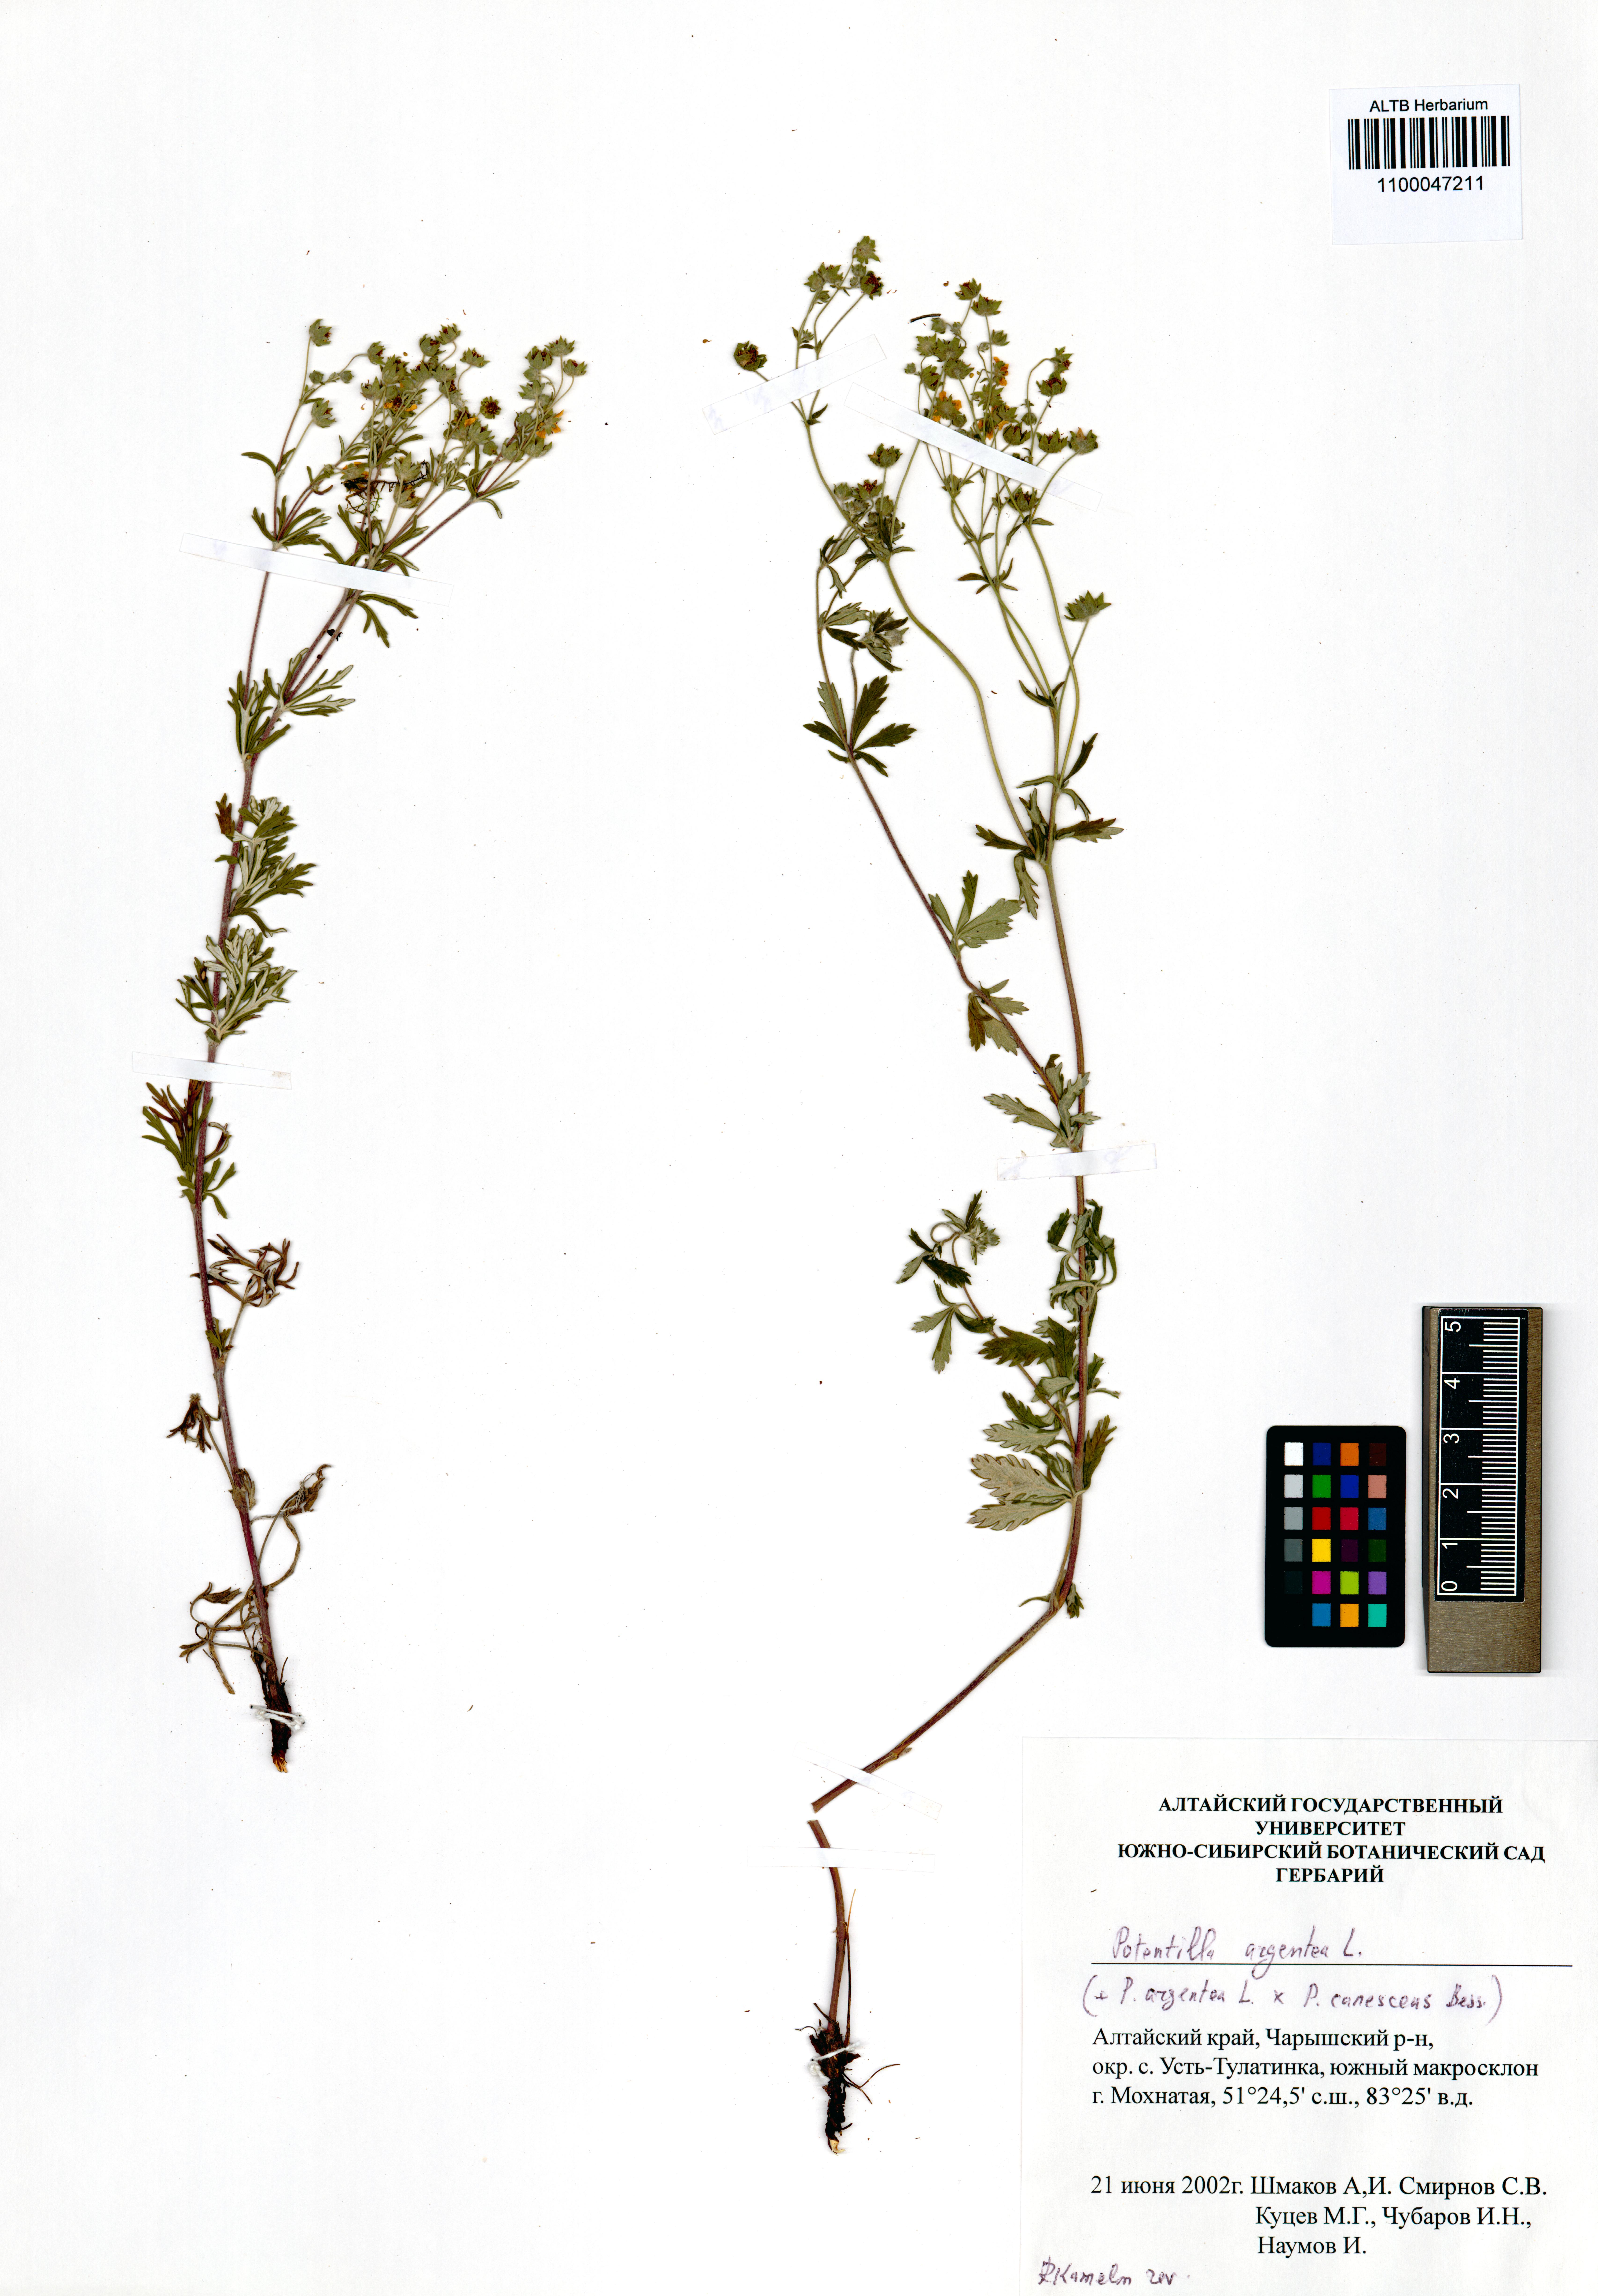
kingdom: Plantae
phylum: Tracheophyta
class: Magnoliopsida
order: Rosales
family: Rosaceae
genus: Potentilla
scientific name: Potentilla argentea
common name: Hoary cinquefoil
